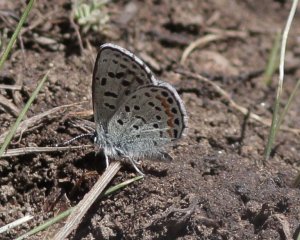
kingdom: Animalia
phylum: Arthropoda
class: Insecta
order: Lepidoptera
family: Lycaenidae
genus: Euphilotes
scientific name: Euphilotes
